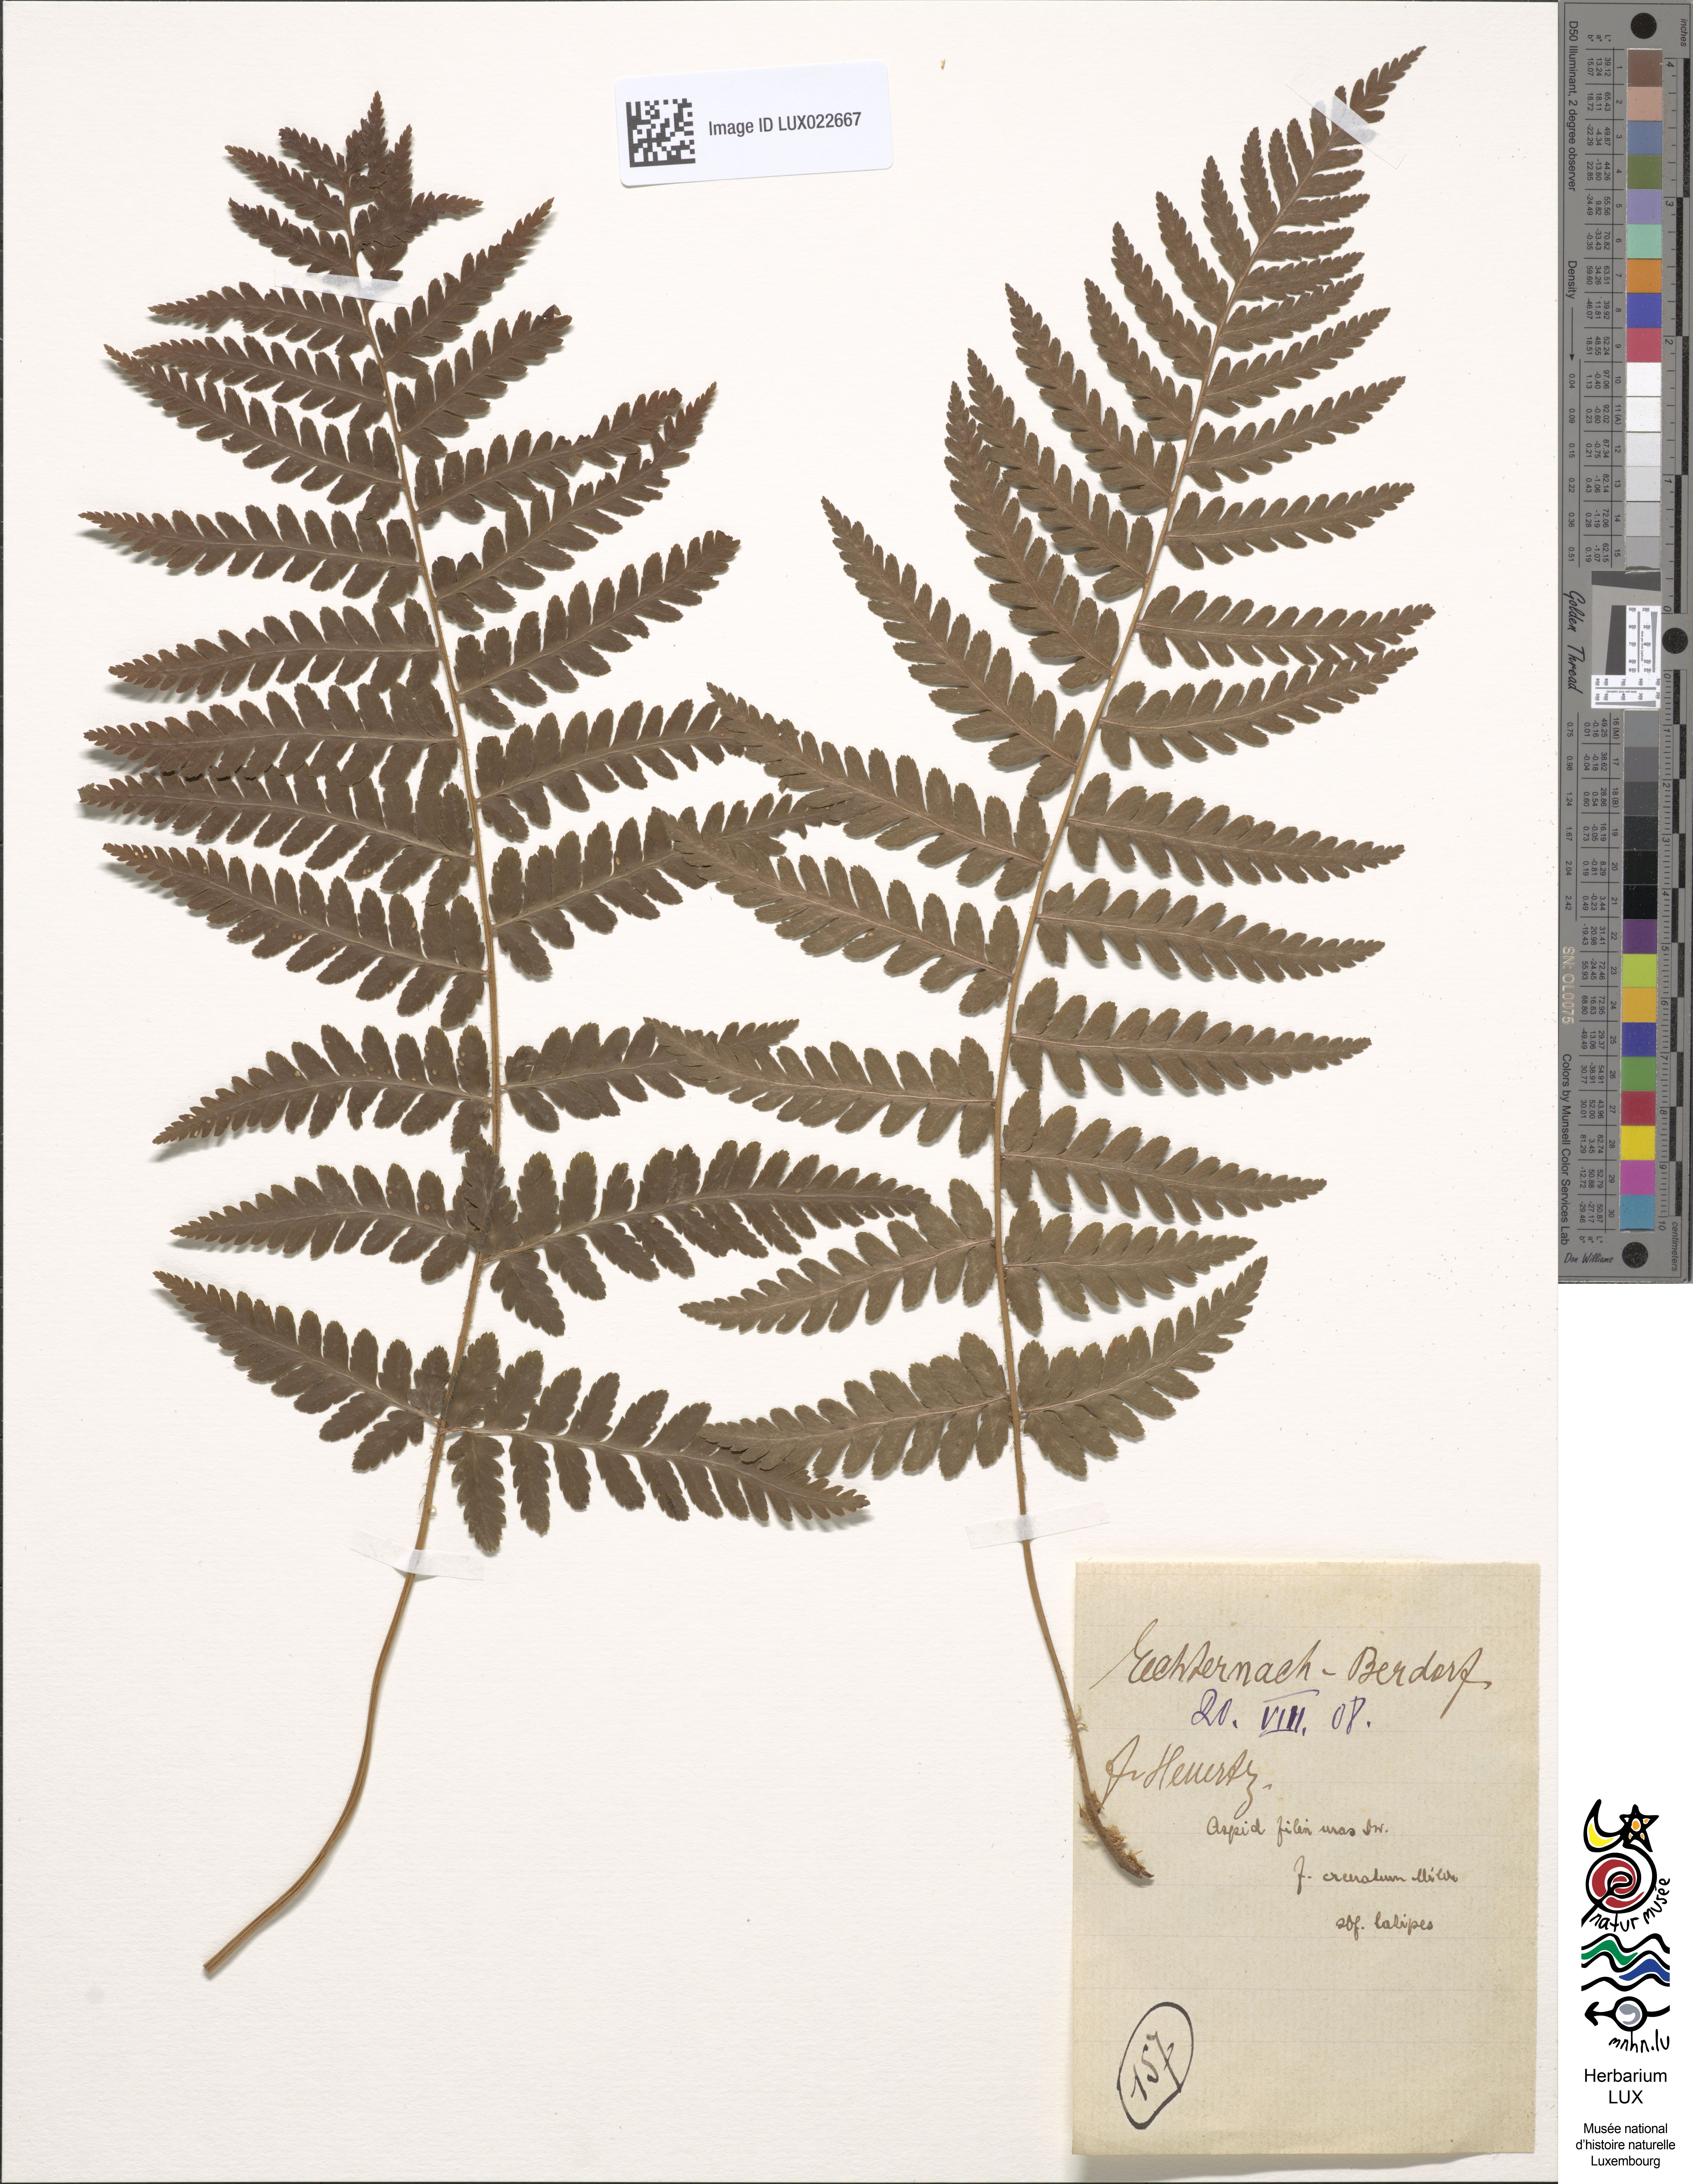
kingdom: Plantae
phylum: Tracheophyta
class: Polypodiopsida
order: Polypodiales
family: Dryopteridaceae
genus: Dryopteris
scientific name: Dryopteris filix-mas
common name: Male fern
